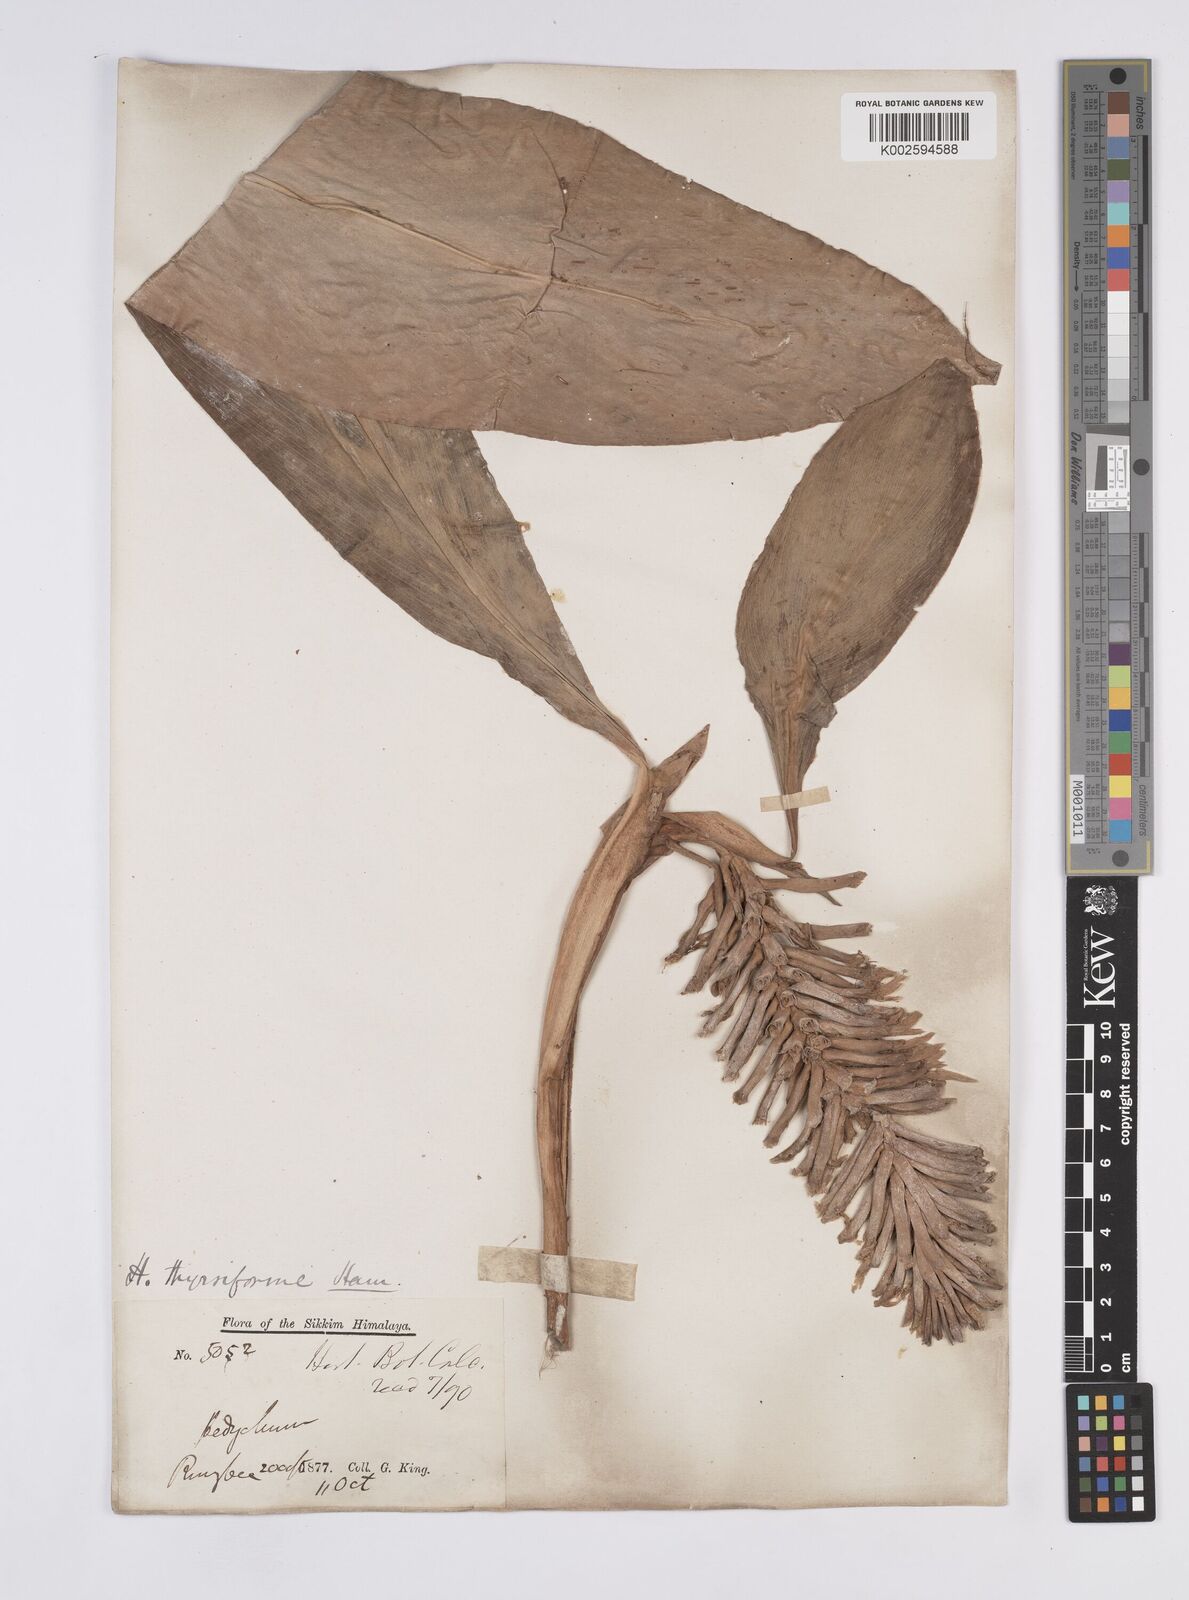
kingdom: Plantae
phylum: Tracheophyta
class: Liliopsida
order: Zingiberales
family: Zingiberaceae
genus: Hedychium
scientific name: Hedychium thyrsiforme
